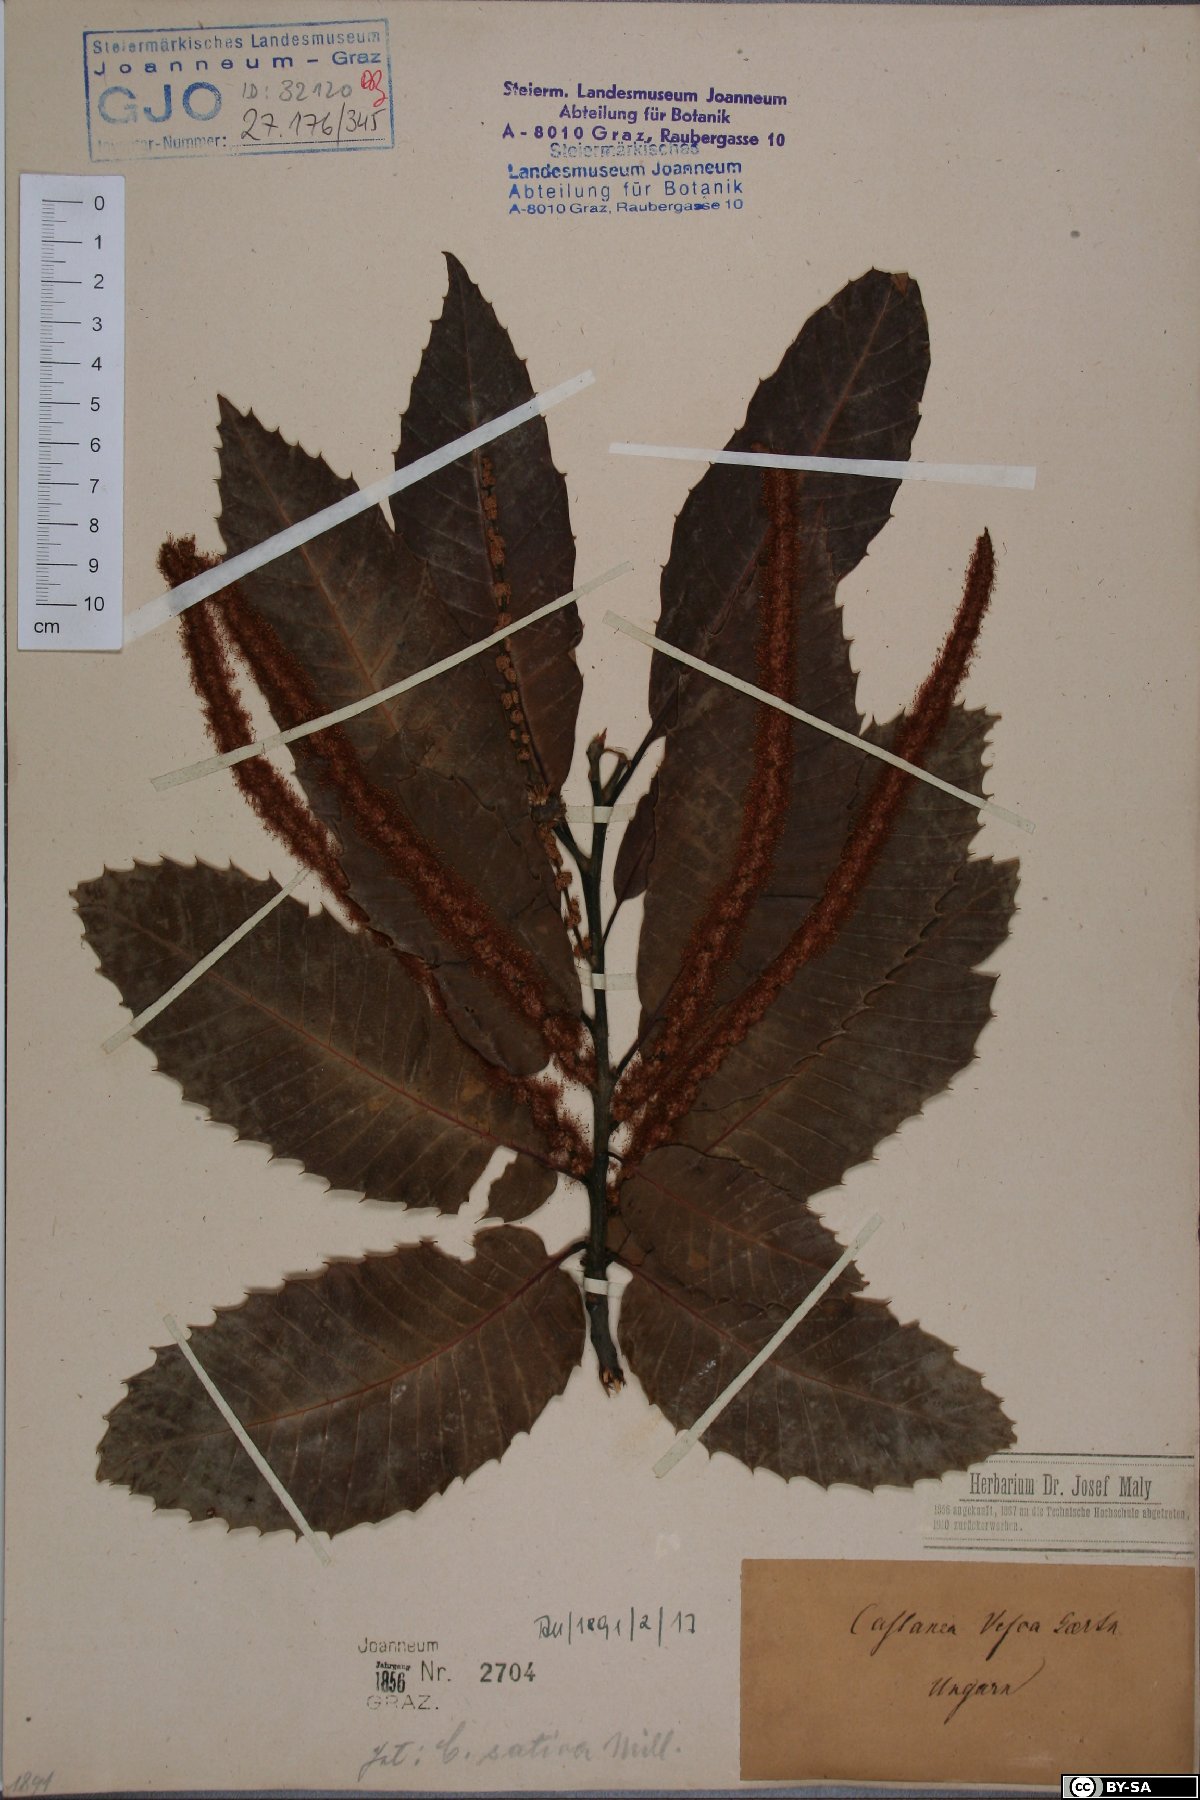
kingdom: Plantae
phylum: Tracheophyta
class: Magnoliopsida
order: Fagales
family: Fagaceae
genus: Castanea
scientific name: Castanea sativa
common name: Sweet chestnut
